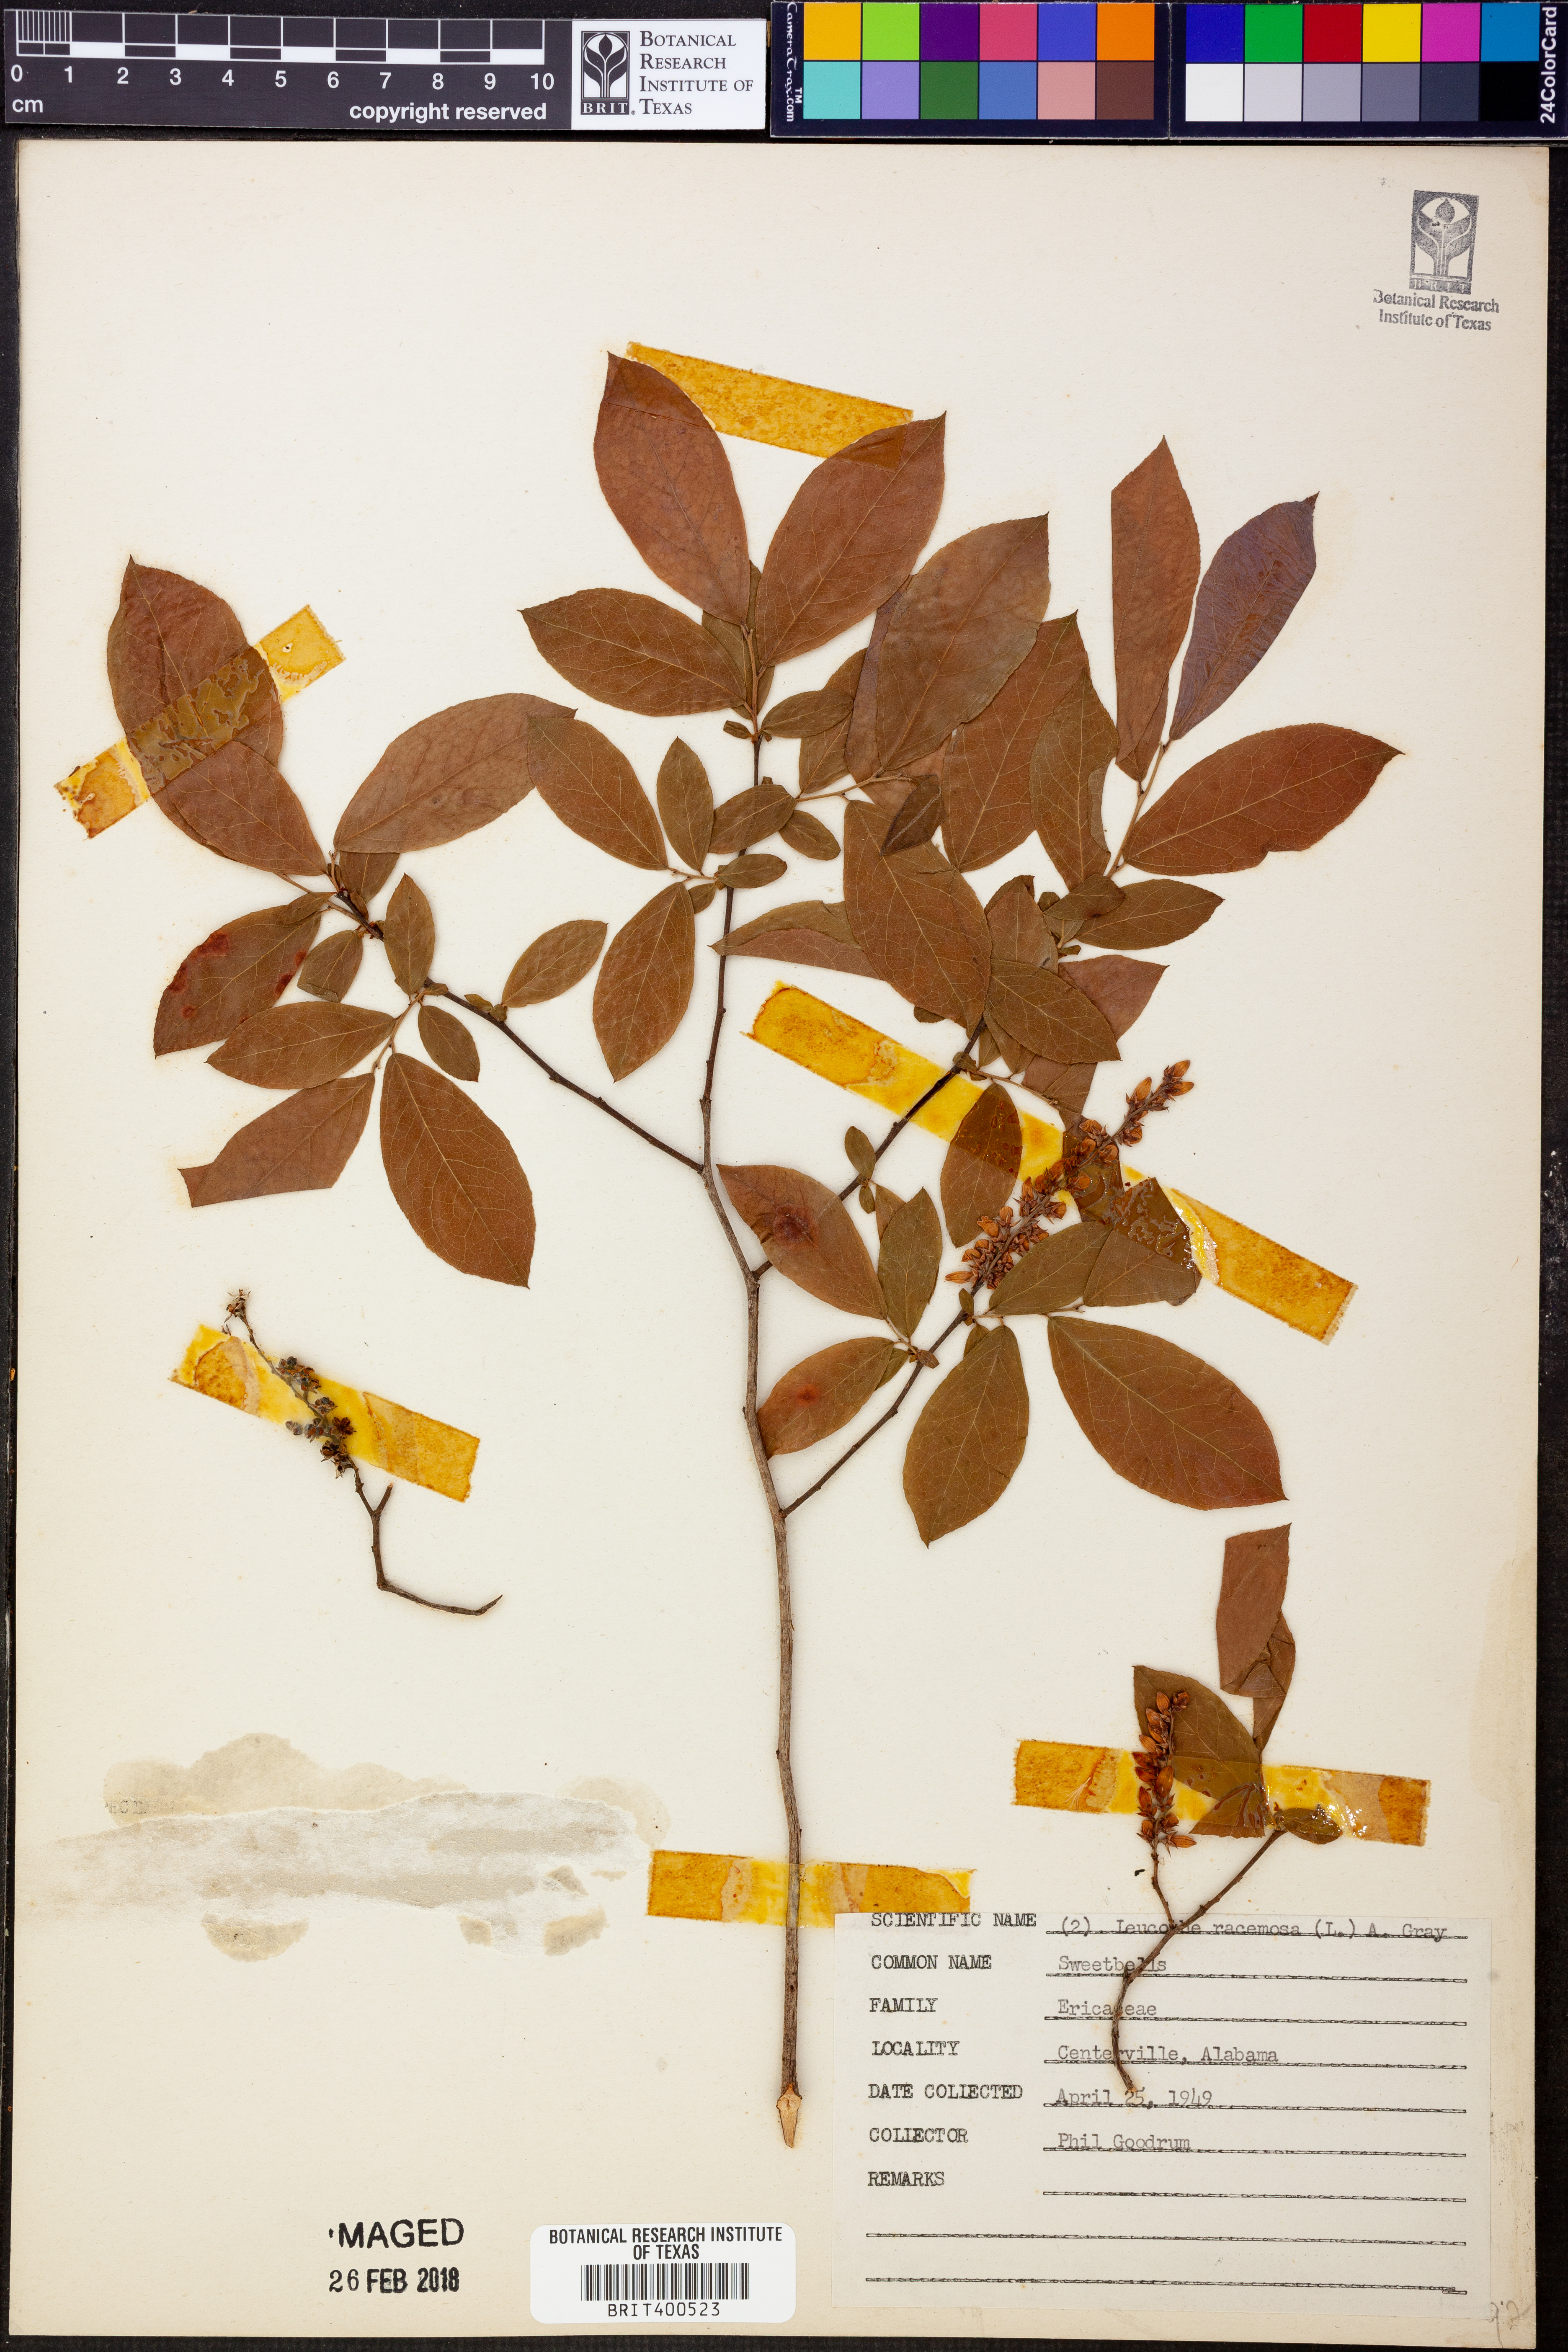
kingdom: Plantae
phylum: Tracheophyta
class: Magnoliopsida
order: Ericales
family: Ericaceae
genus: Eubotrys
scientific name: Eubotrys racemosa
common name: Fetterbush
